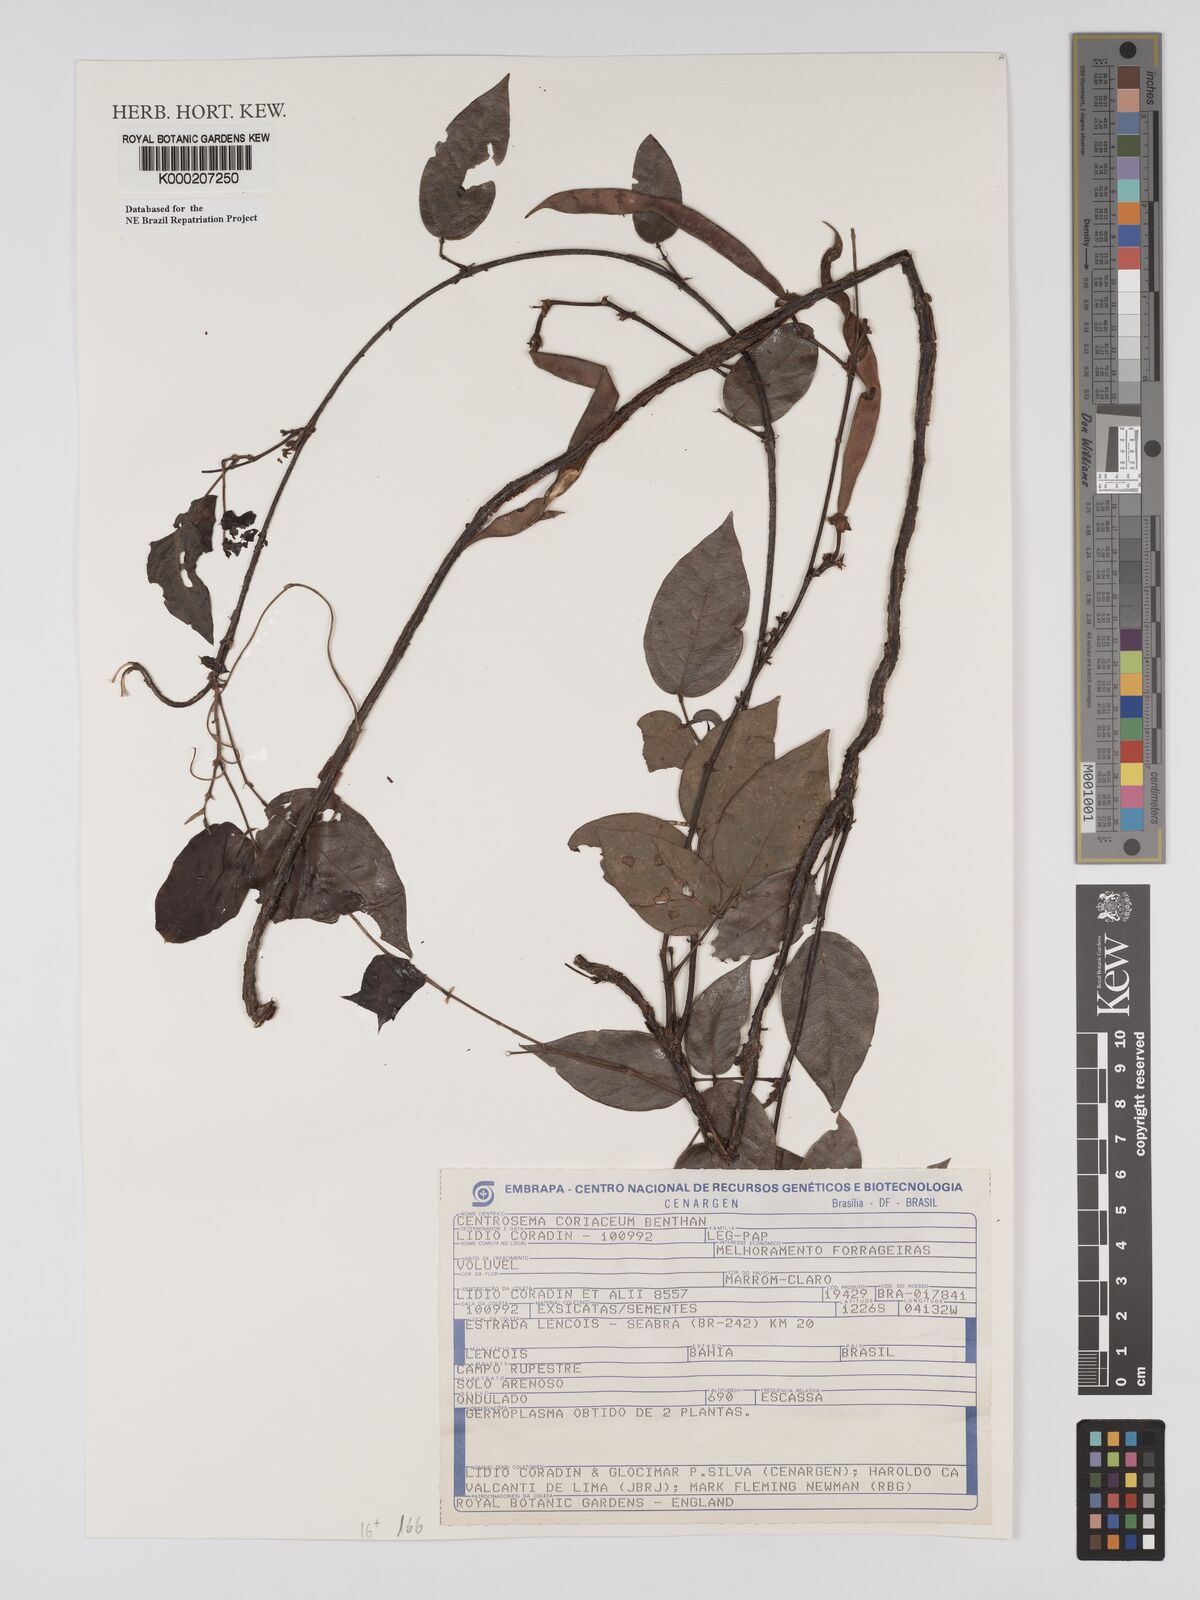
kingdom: Plantae
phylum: Tracheophyta
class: Magnoliopsida
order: Fabales
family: Fabaceae
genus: Centrosema
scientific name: Centrosema coriaceum
